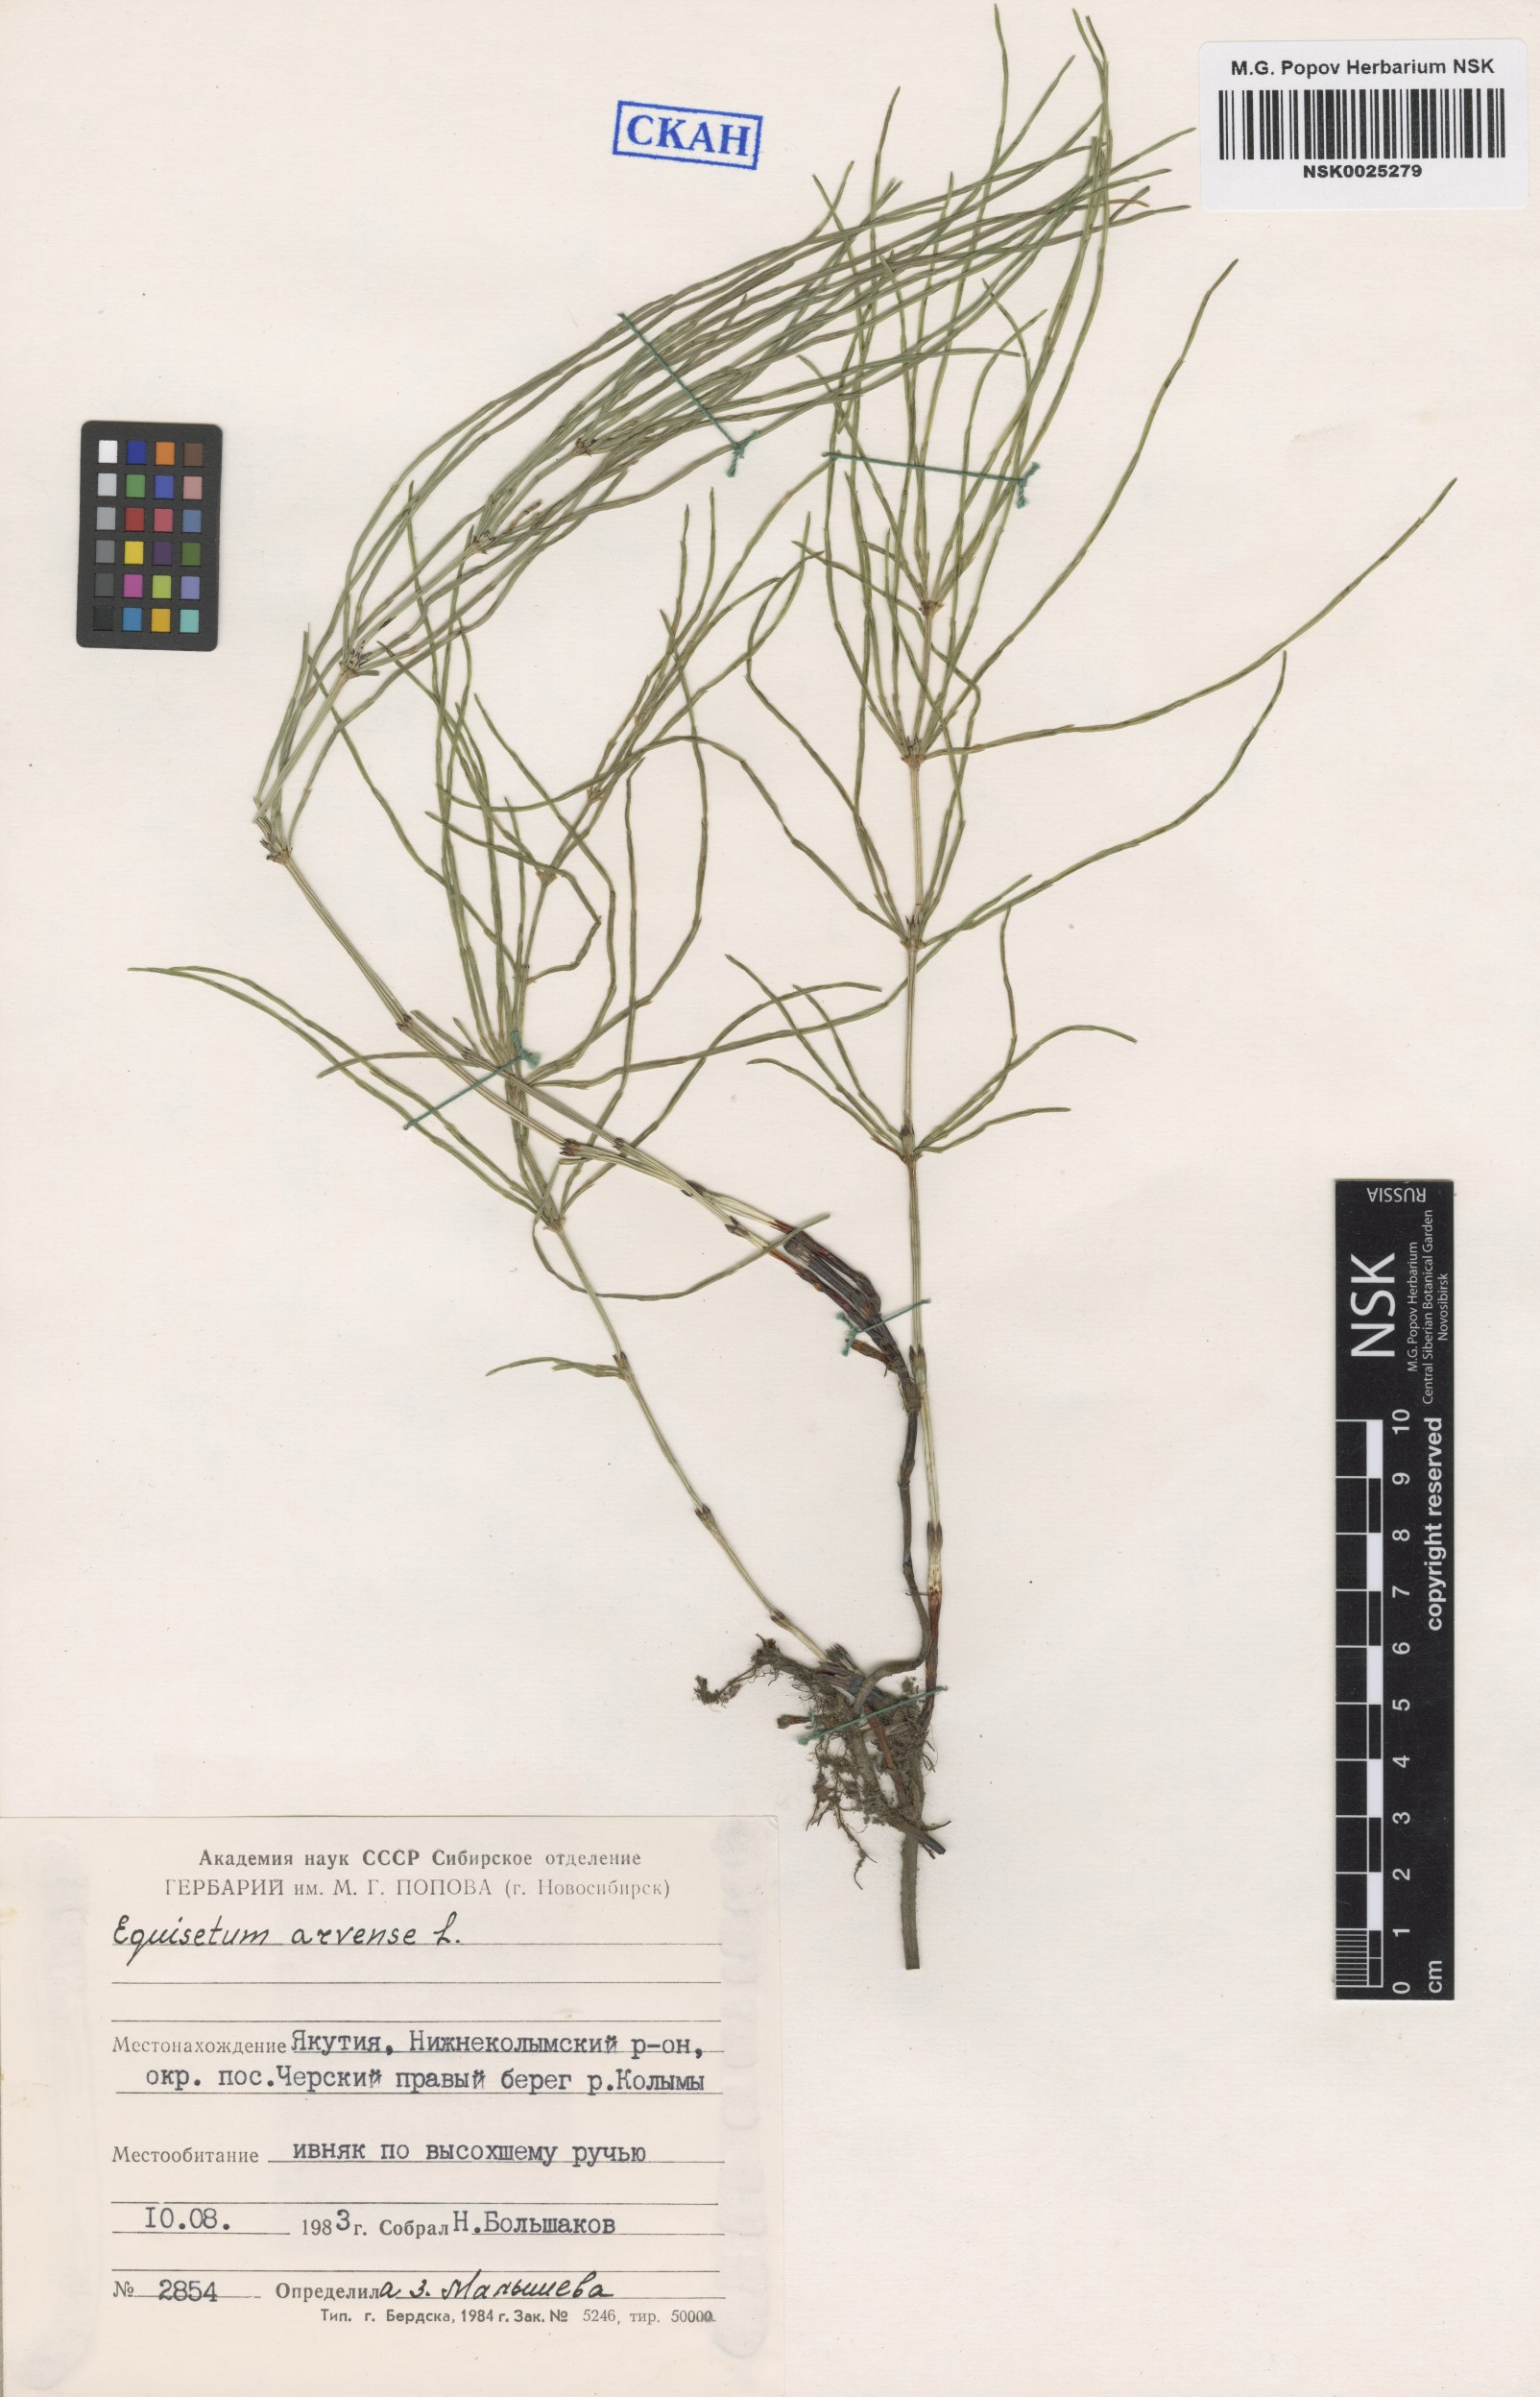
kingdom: Plantae
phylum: Tracheophyta
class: Polypodiopsida
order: Equisetales
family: Equisetaceae
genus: Equisetum
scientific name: Equisetum arvense
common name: Field horsetail
